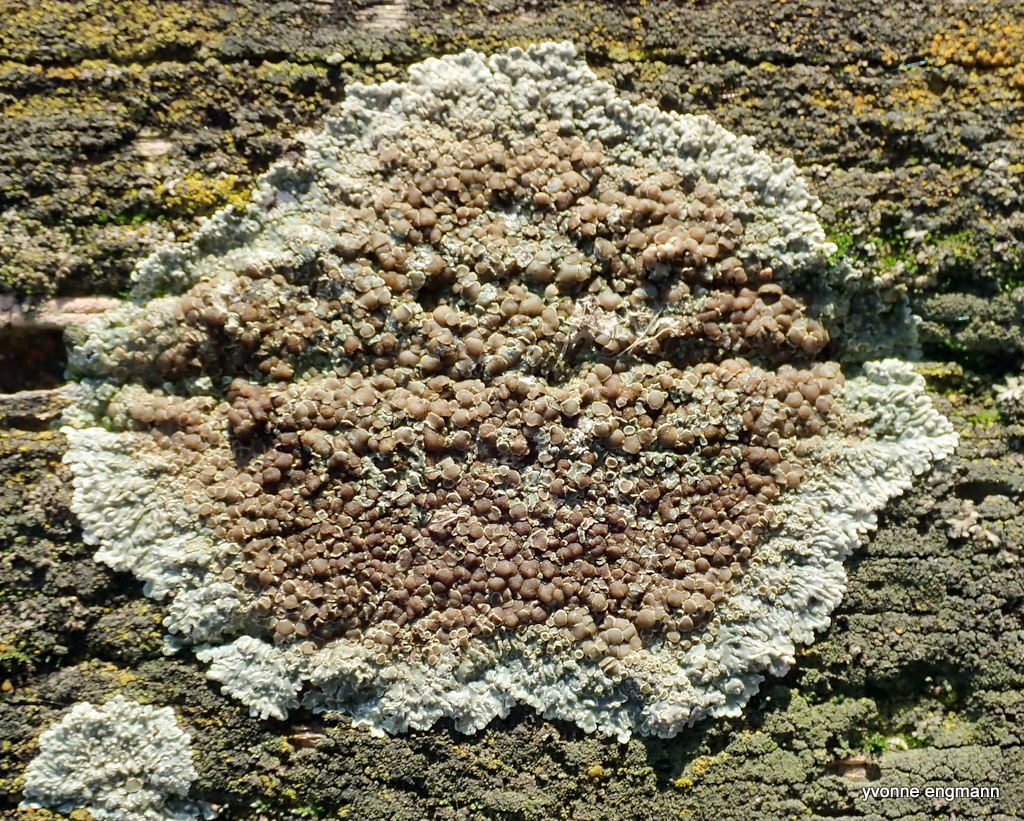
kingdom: Fungi
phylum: Ascomycota
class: Lecanoromycetes
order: Lecanorales
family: Lecanoraceae
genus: Protoparmeliopsis
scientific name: Protoparmeliopsis muralis
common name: randfliget kantskivelav
